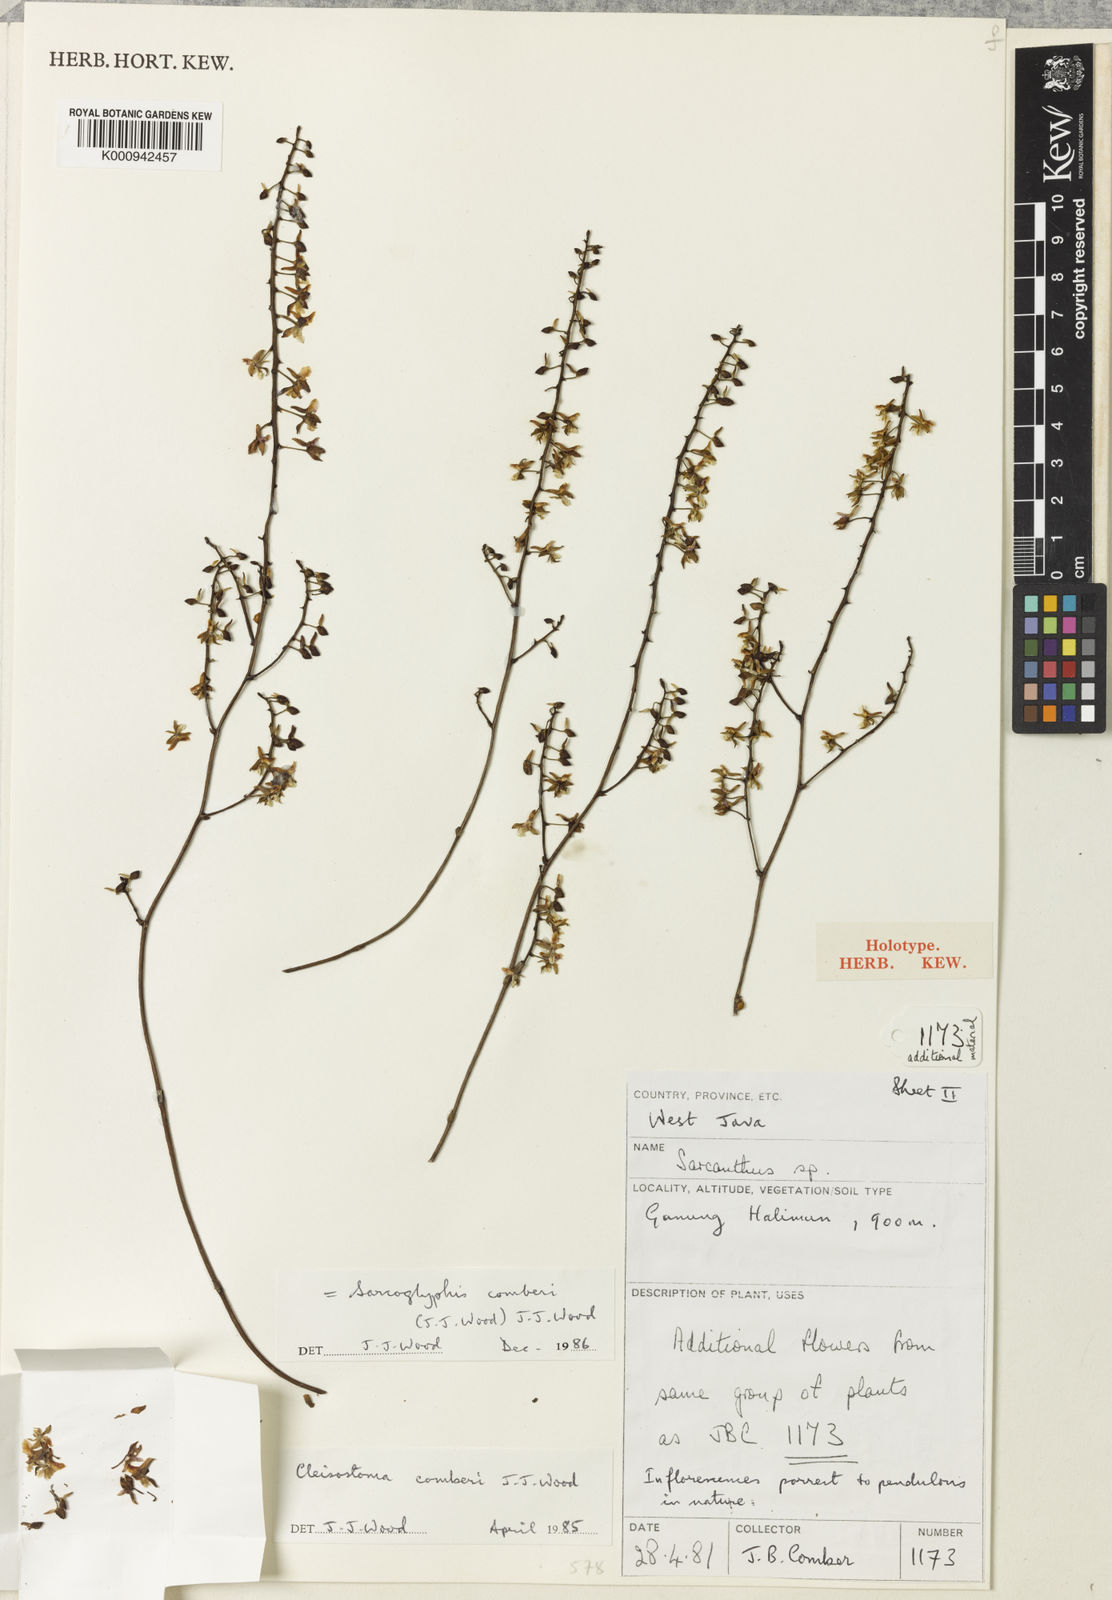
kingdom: Plantae
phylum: Tracheophyta
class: Liliopsida
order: Asparagales
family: Orchidaceae
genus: Sarcoglyphis
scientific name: Sarcoglyphis comberi
